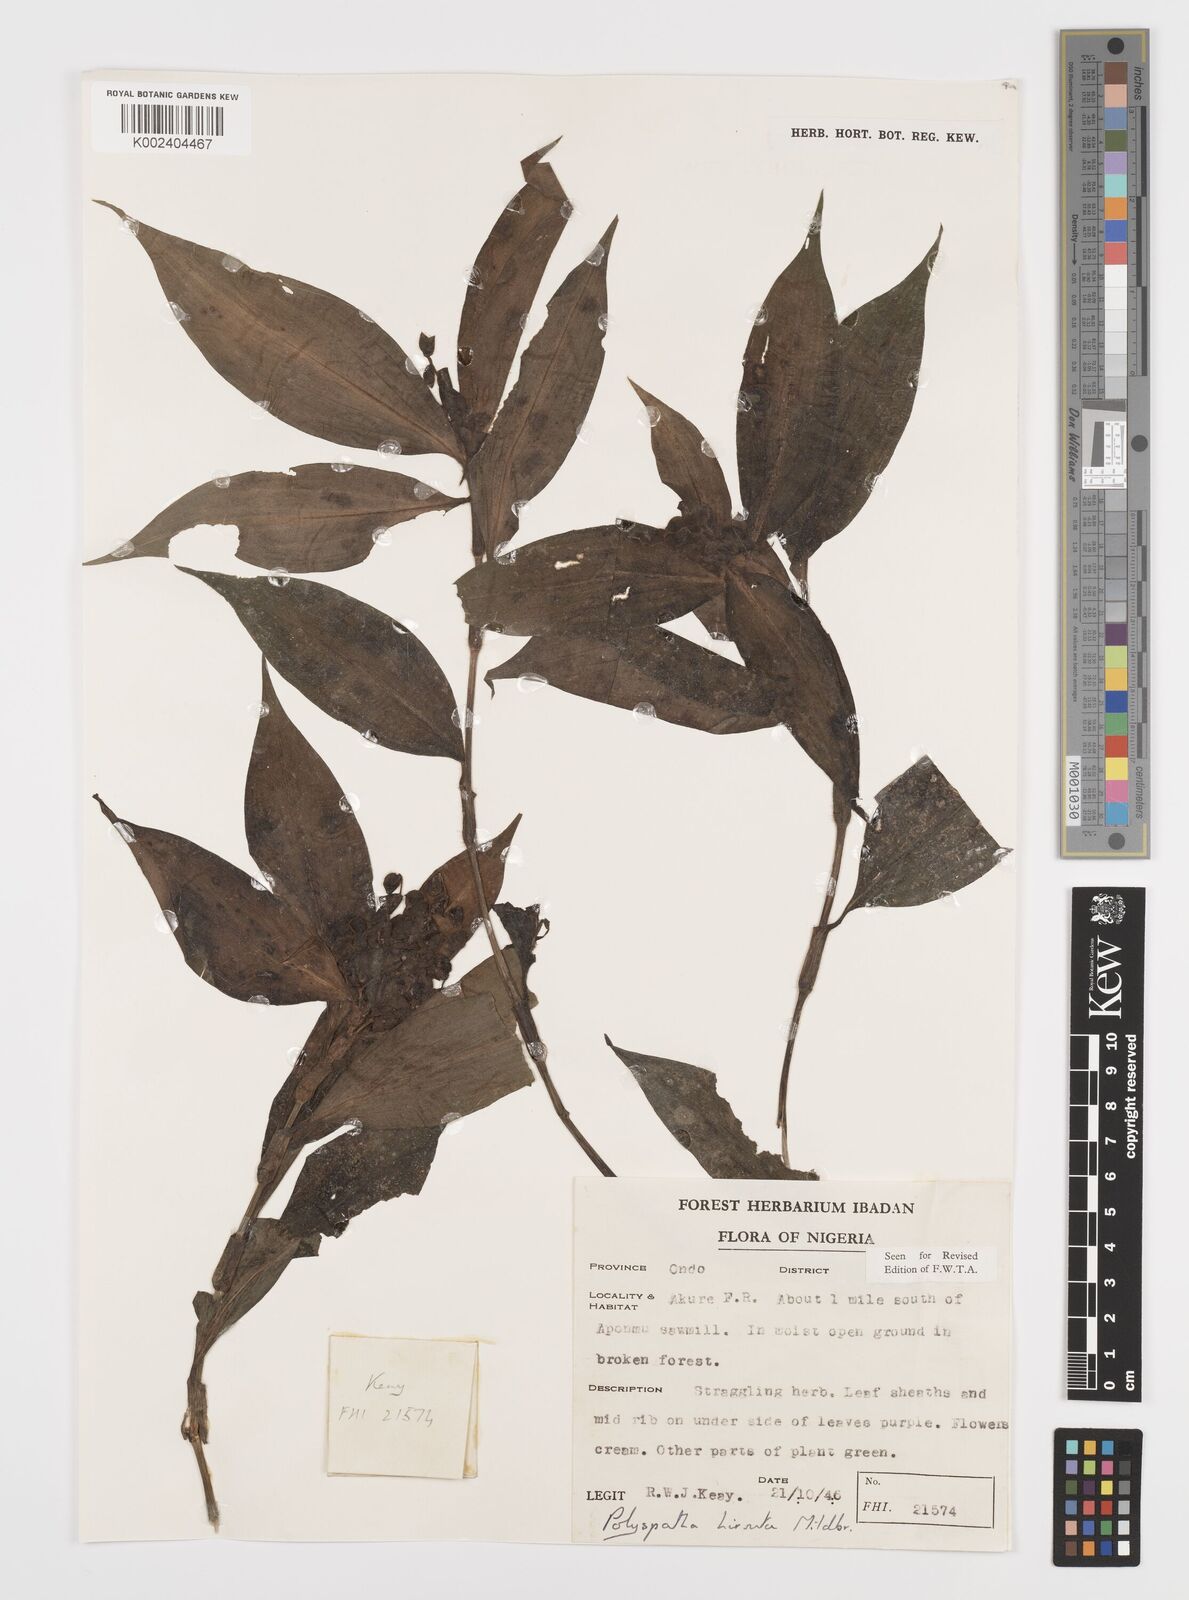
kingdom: Plantae
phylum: Tracheophyta
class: Liliopsida
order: Commelinales
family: Commelinaceae
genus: Polyspatha
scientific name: Polyspatha hirsuta
